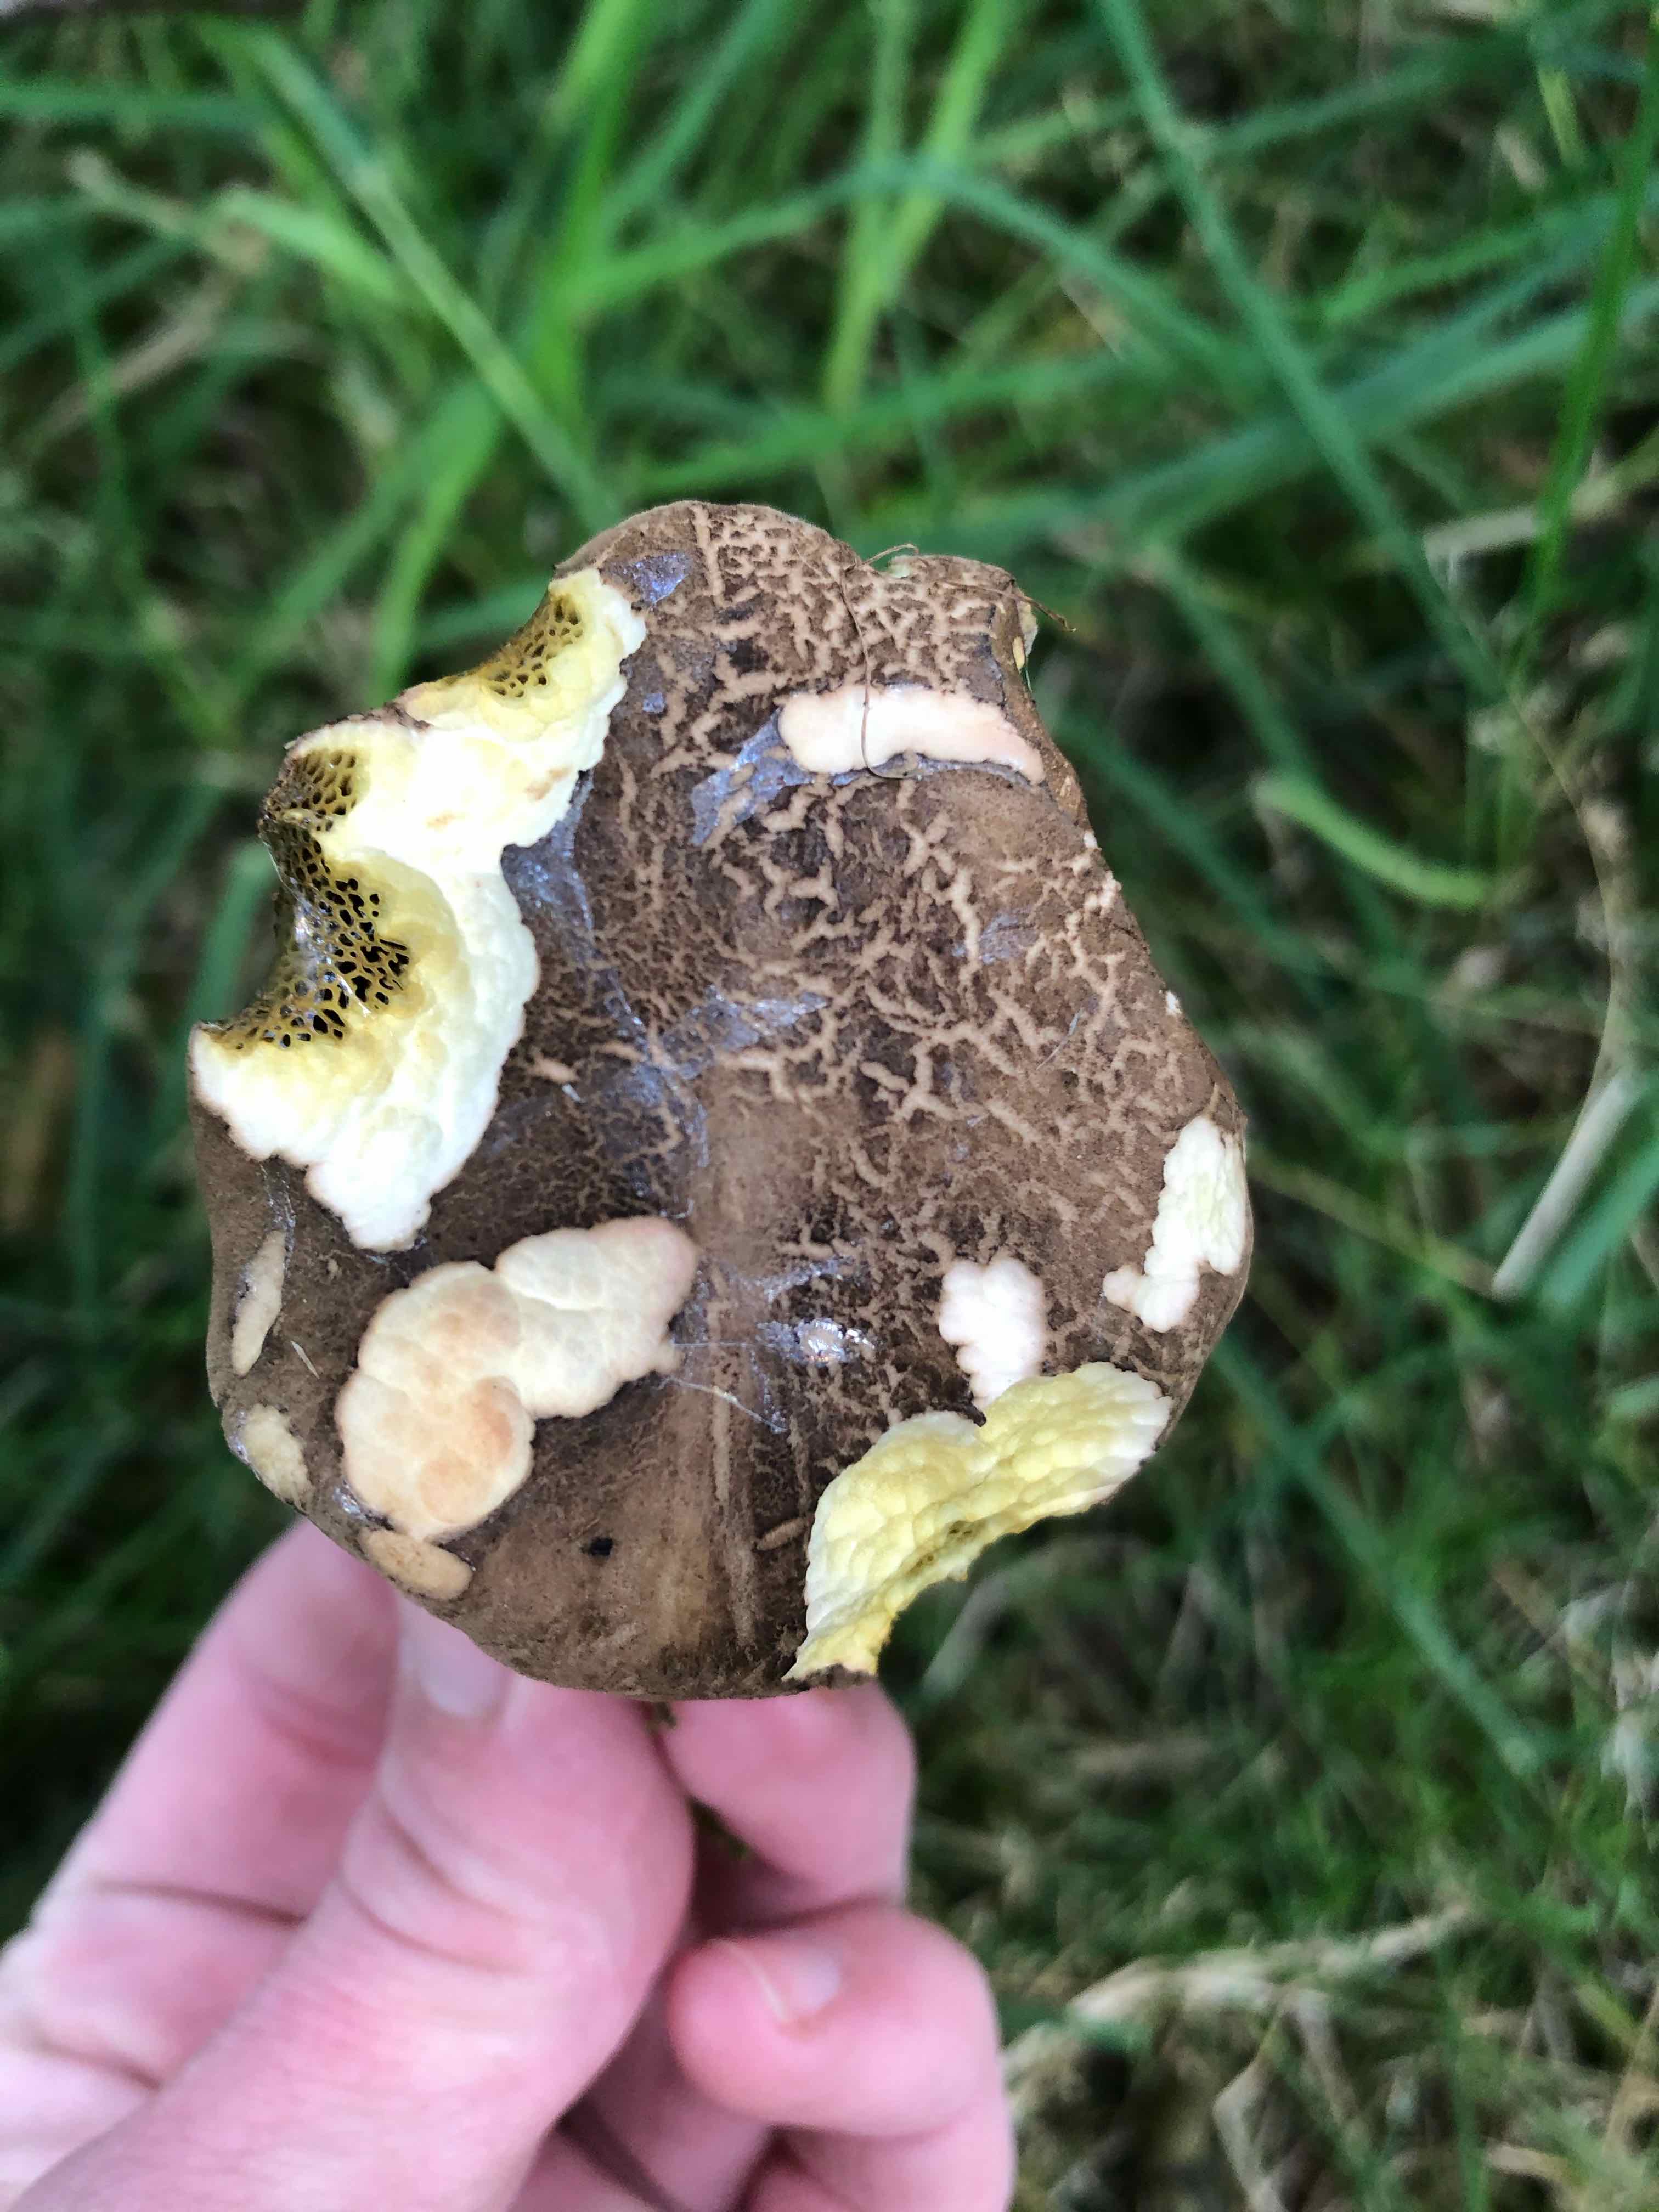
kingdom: Fungi
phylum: Basidiomycota
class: Agaricomycetes
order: Boletales
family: Boletaceae
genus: Xerocomellus
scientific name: Xerocomellus porosporus
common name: hvidsprukken rørhat
